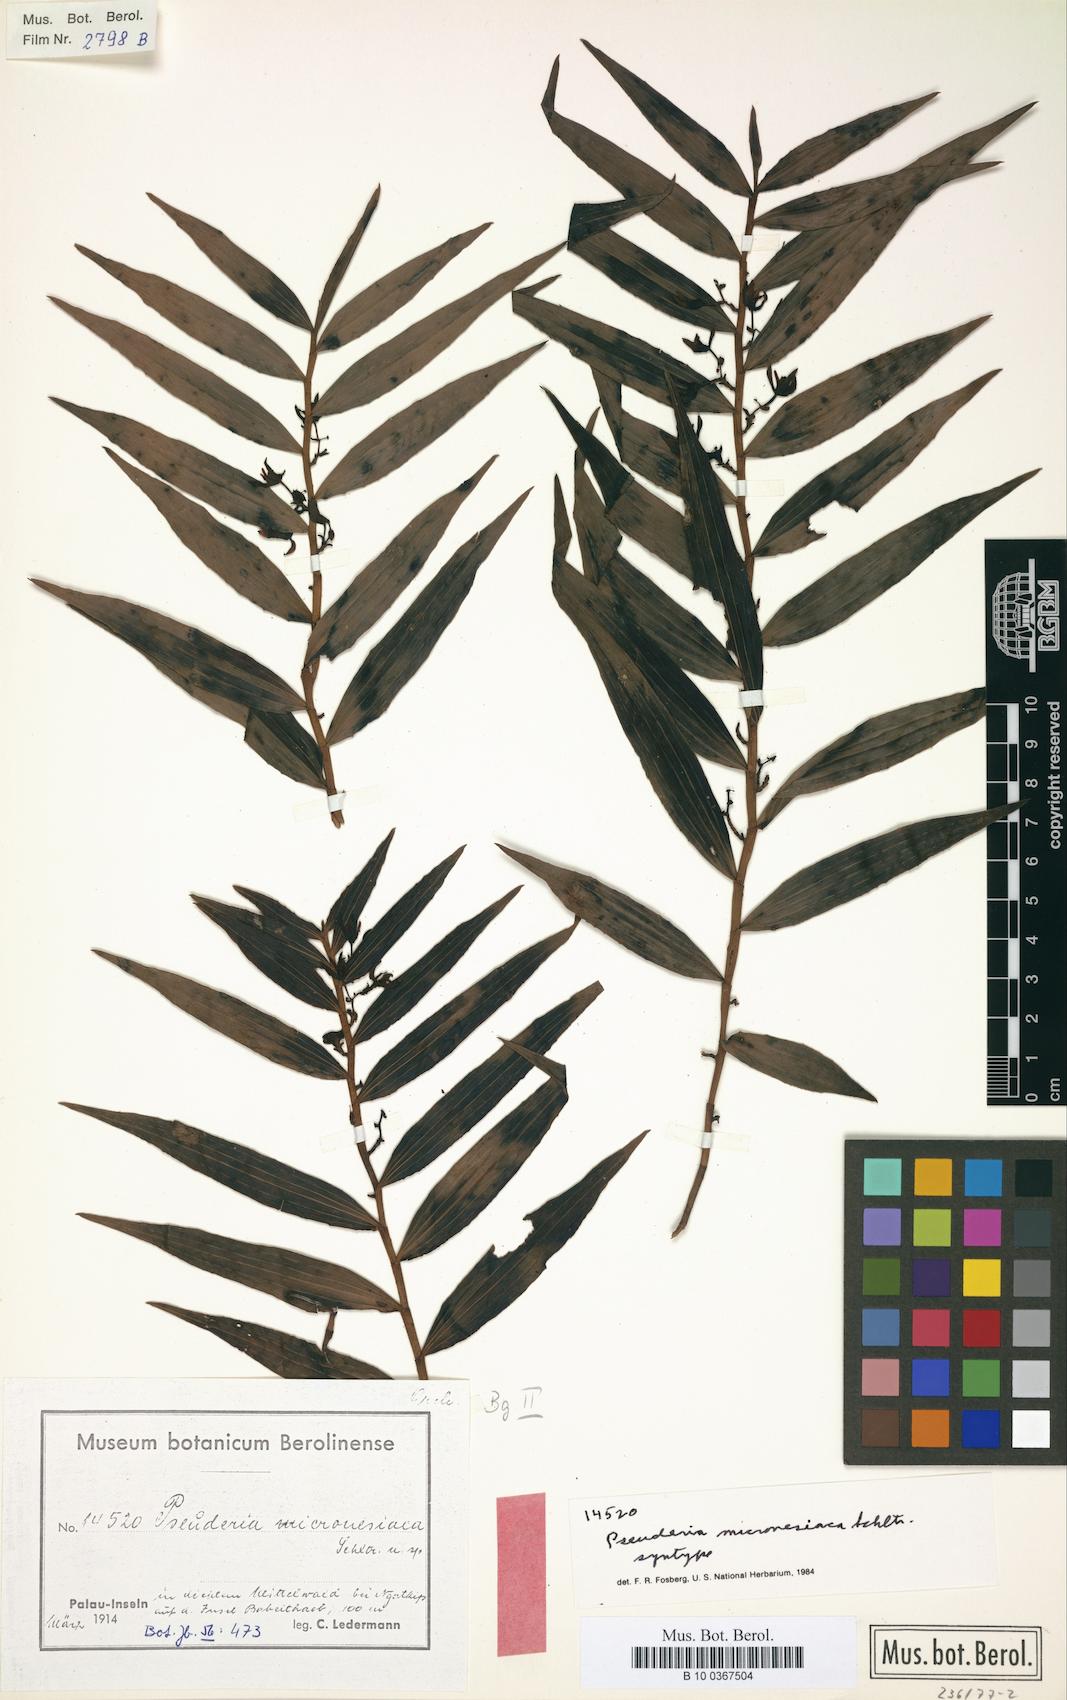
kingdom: Plantae
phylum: Tracheophyta
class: Liliopsida
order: Asparagales
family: Orchidaceae
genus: Pseuderia
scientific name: Pseuderia micronesiaca
